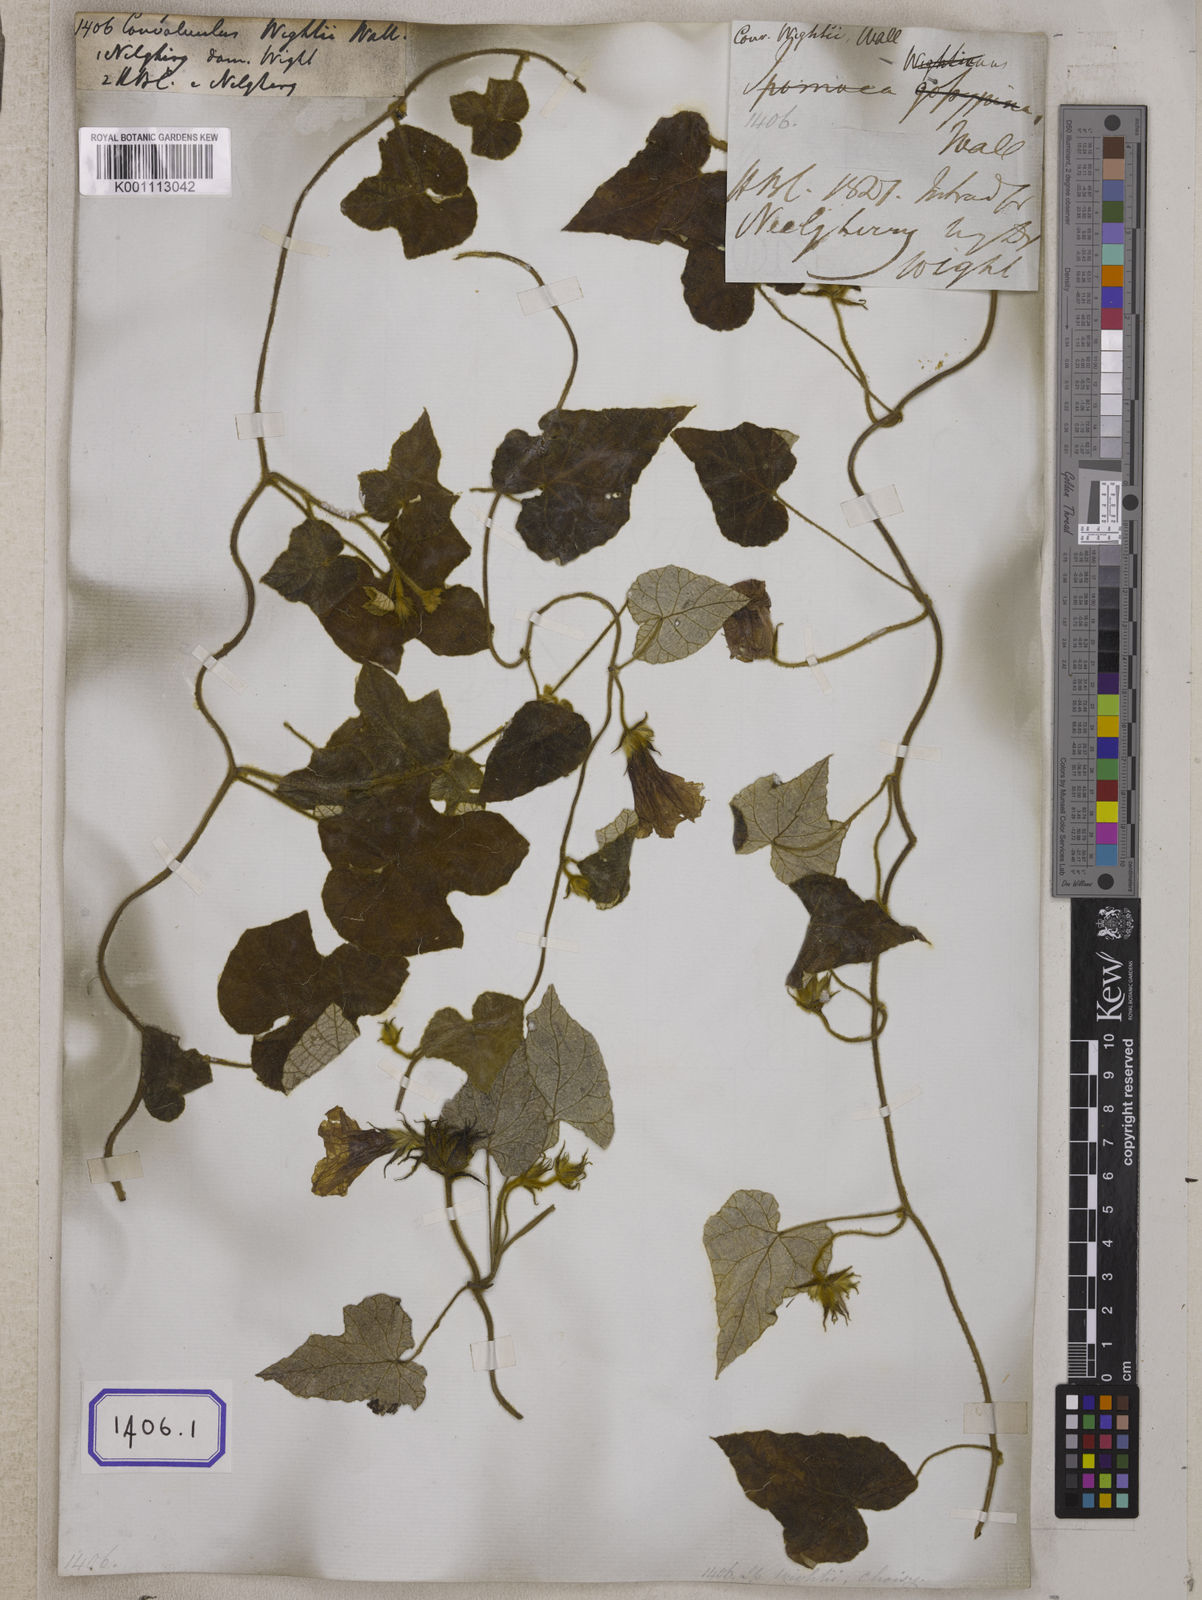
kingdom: Plantae
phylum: Tracheophyta
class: Magnoliopsida
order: Solanales
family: Convolvulaceae
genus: Ipomoea
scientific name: Ipomoea wightii
